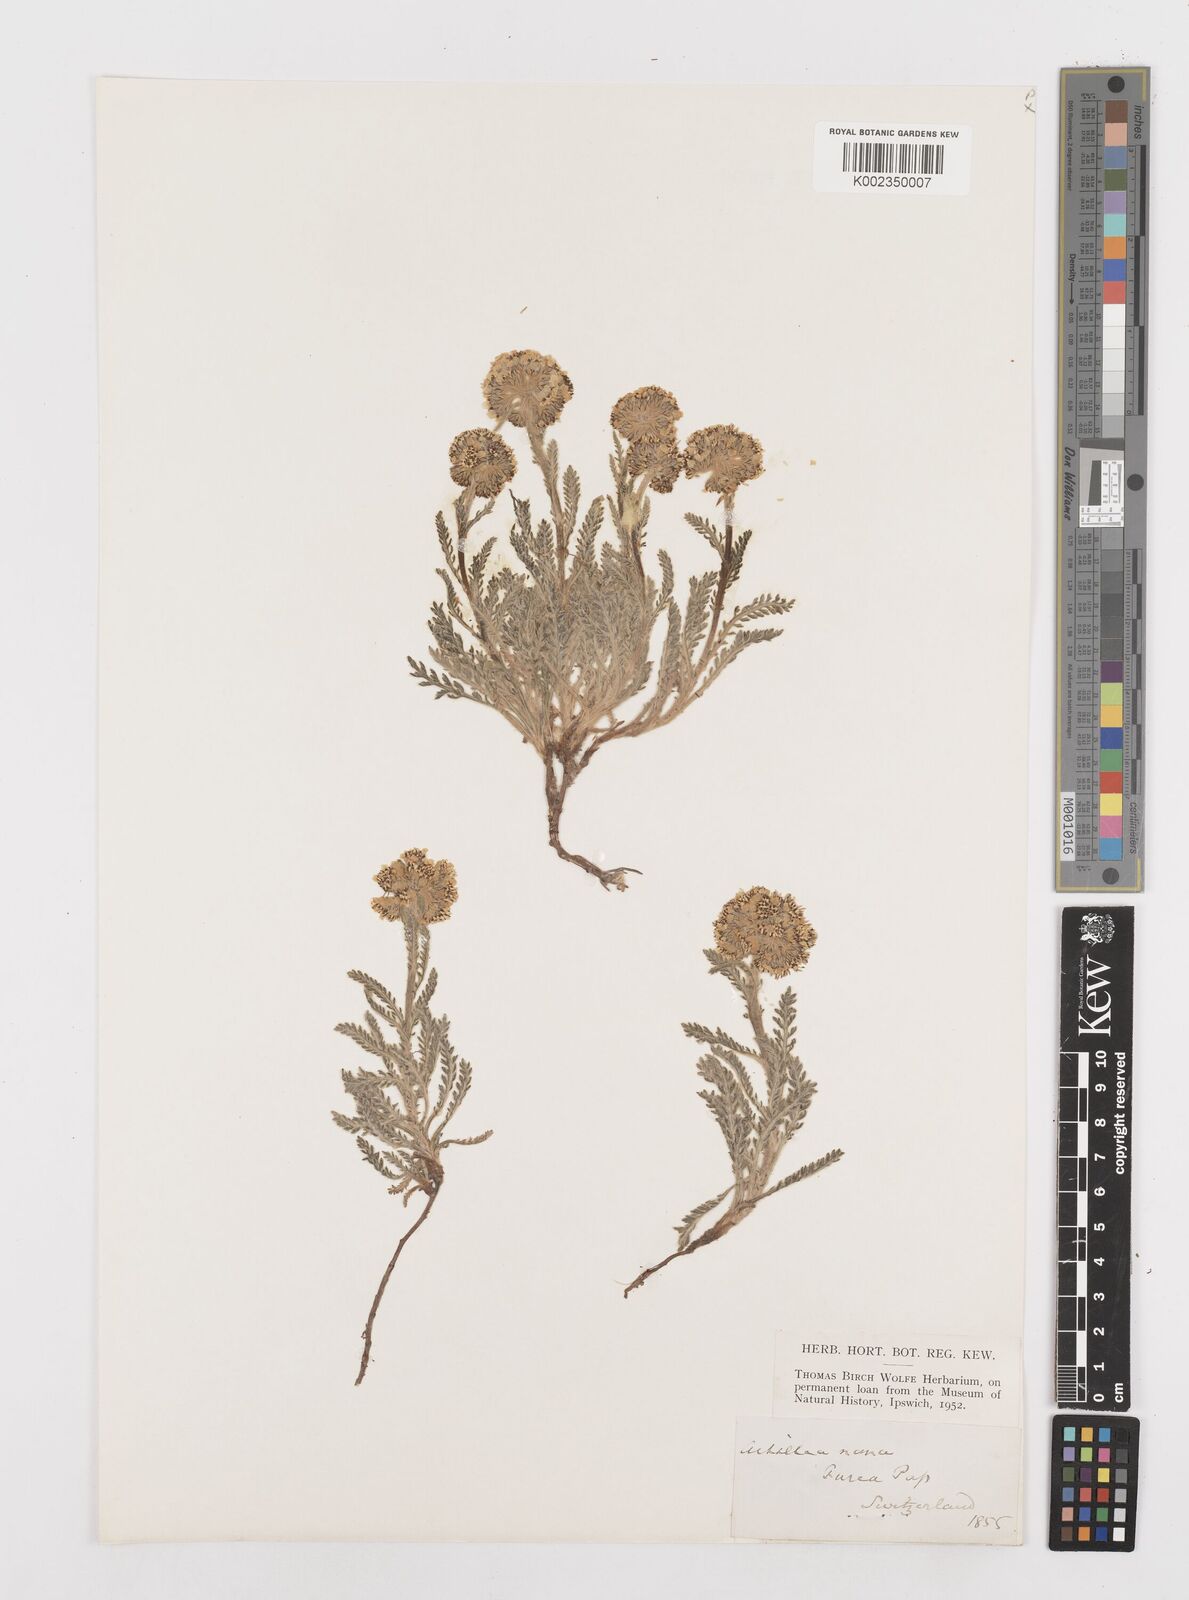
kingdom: Plantae
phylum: Tracheophyta
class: Magnoliopsida
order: Asterales
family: Asteraceae
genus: Achillea
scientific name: Achillea nana
